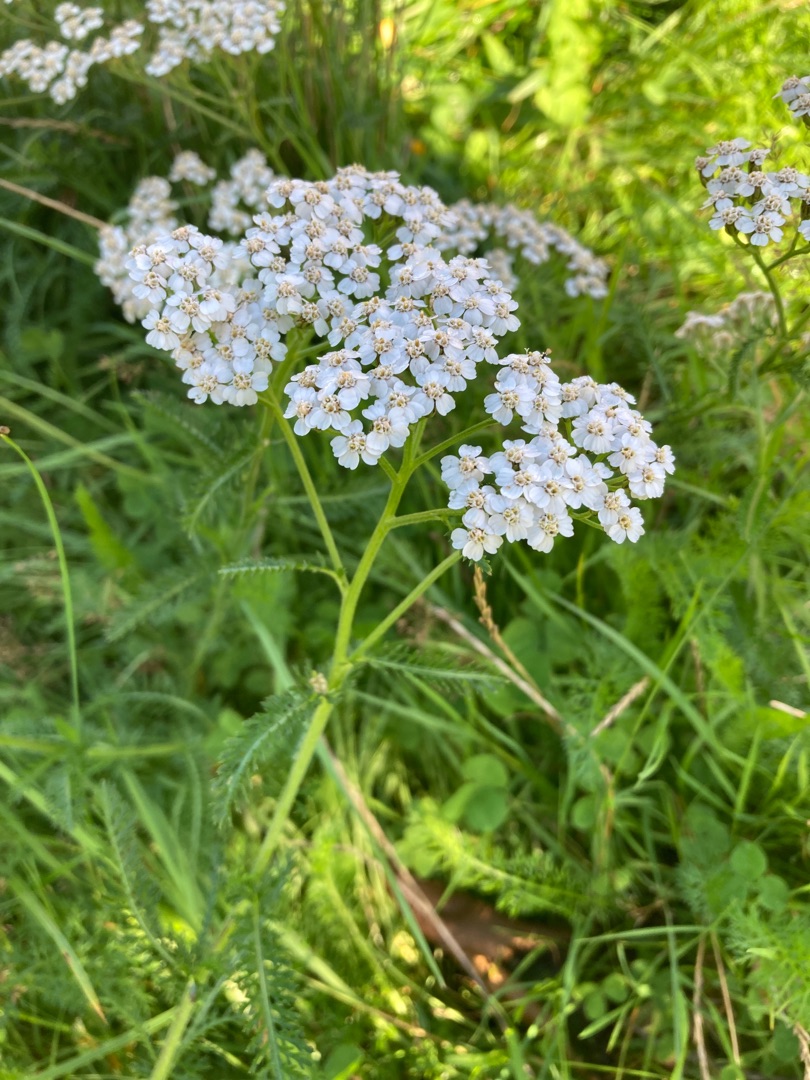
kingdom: Plantae
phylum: Tracheophyta
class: Magnoliopsida
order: Asterales
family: Asteraceae
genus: Achillea
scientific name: Achillea millefolium
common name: Almindelig røllike
